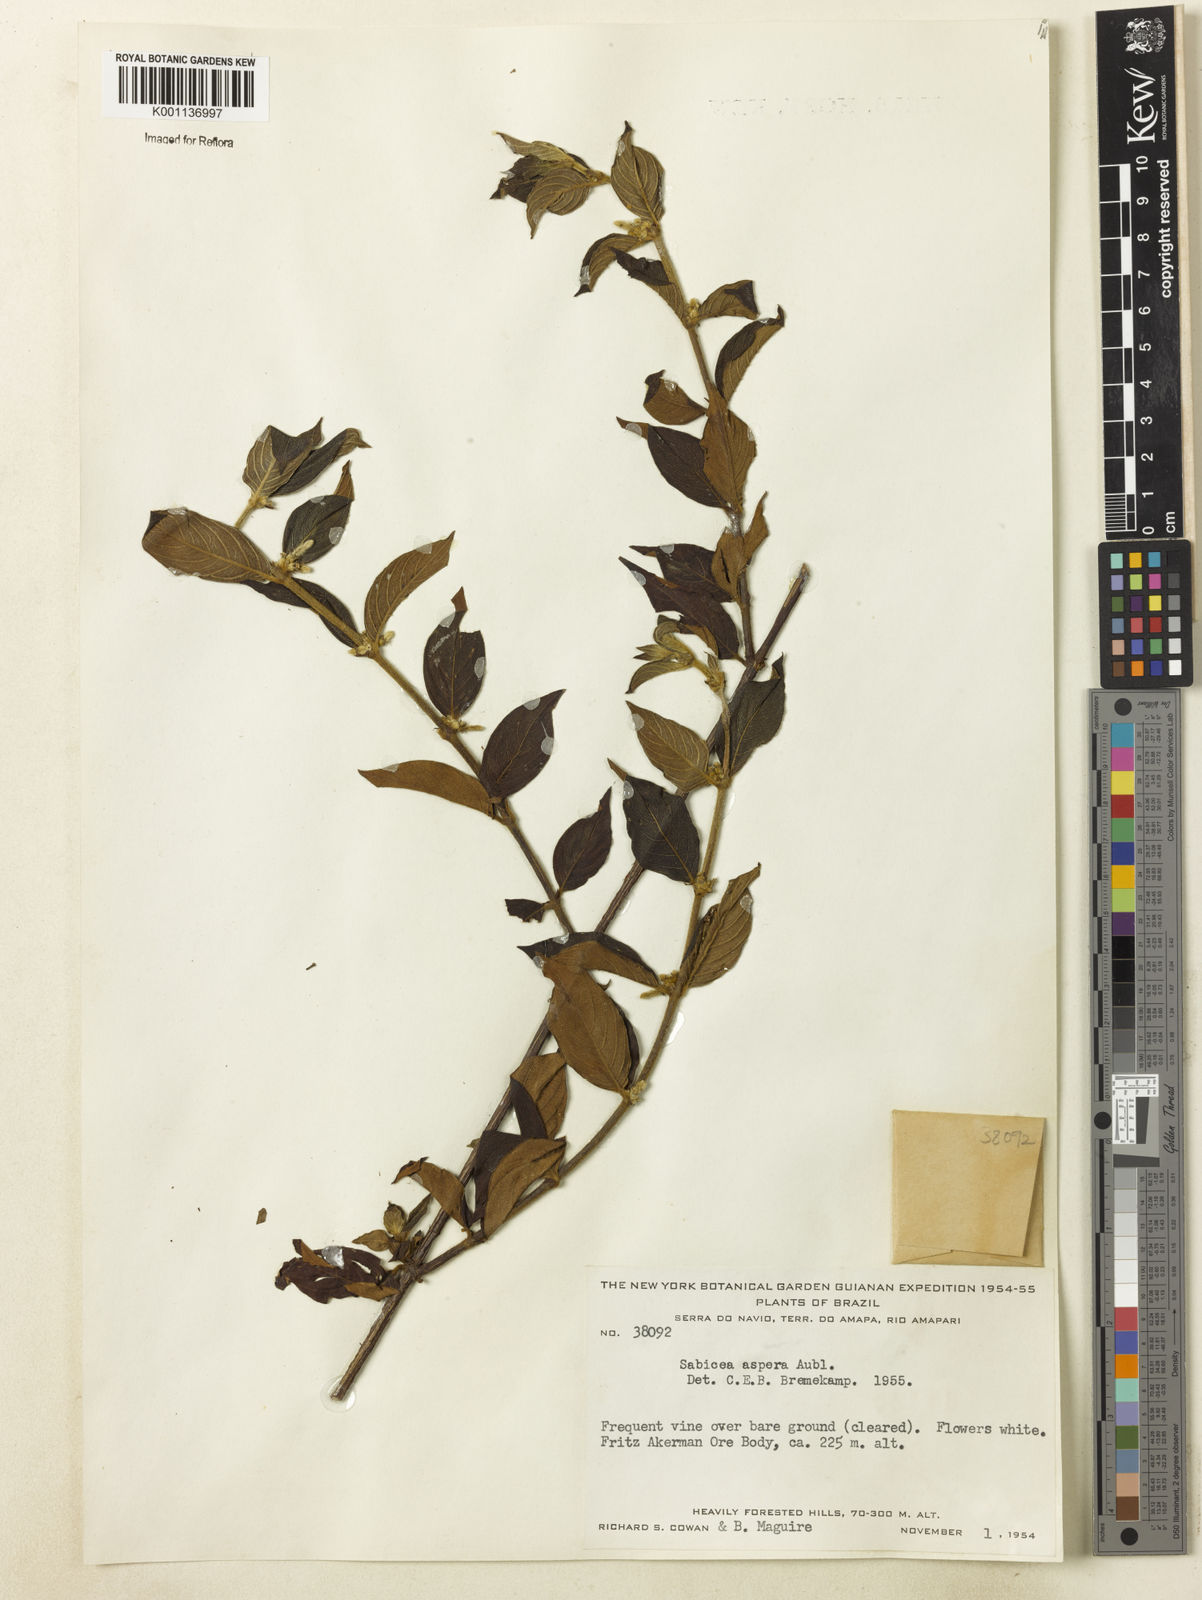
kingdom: Plantae
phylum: Tracheophyta
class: Magnoliopsida
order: Gentianales
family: Rubiaceae
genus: Sabicea
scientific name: Sabicea aspera
